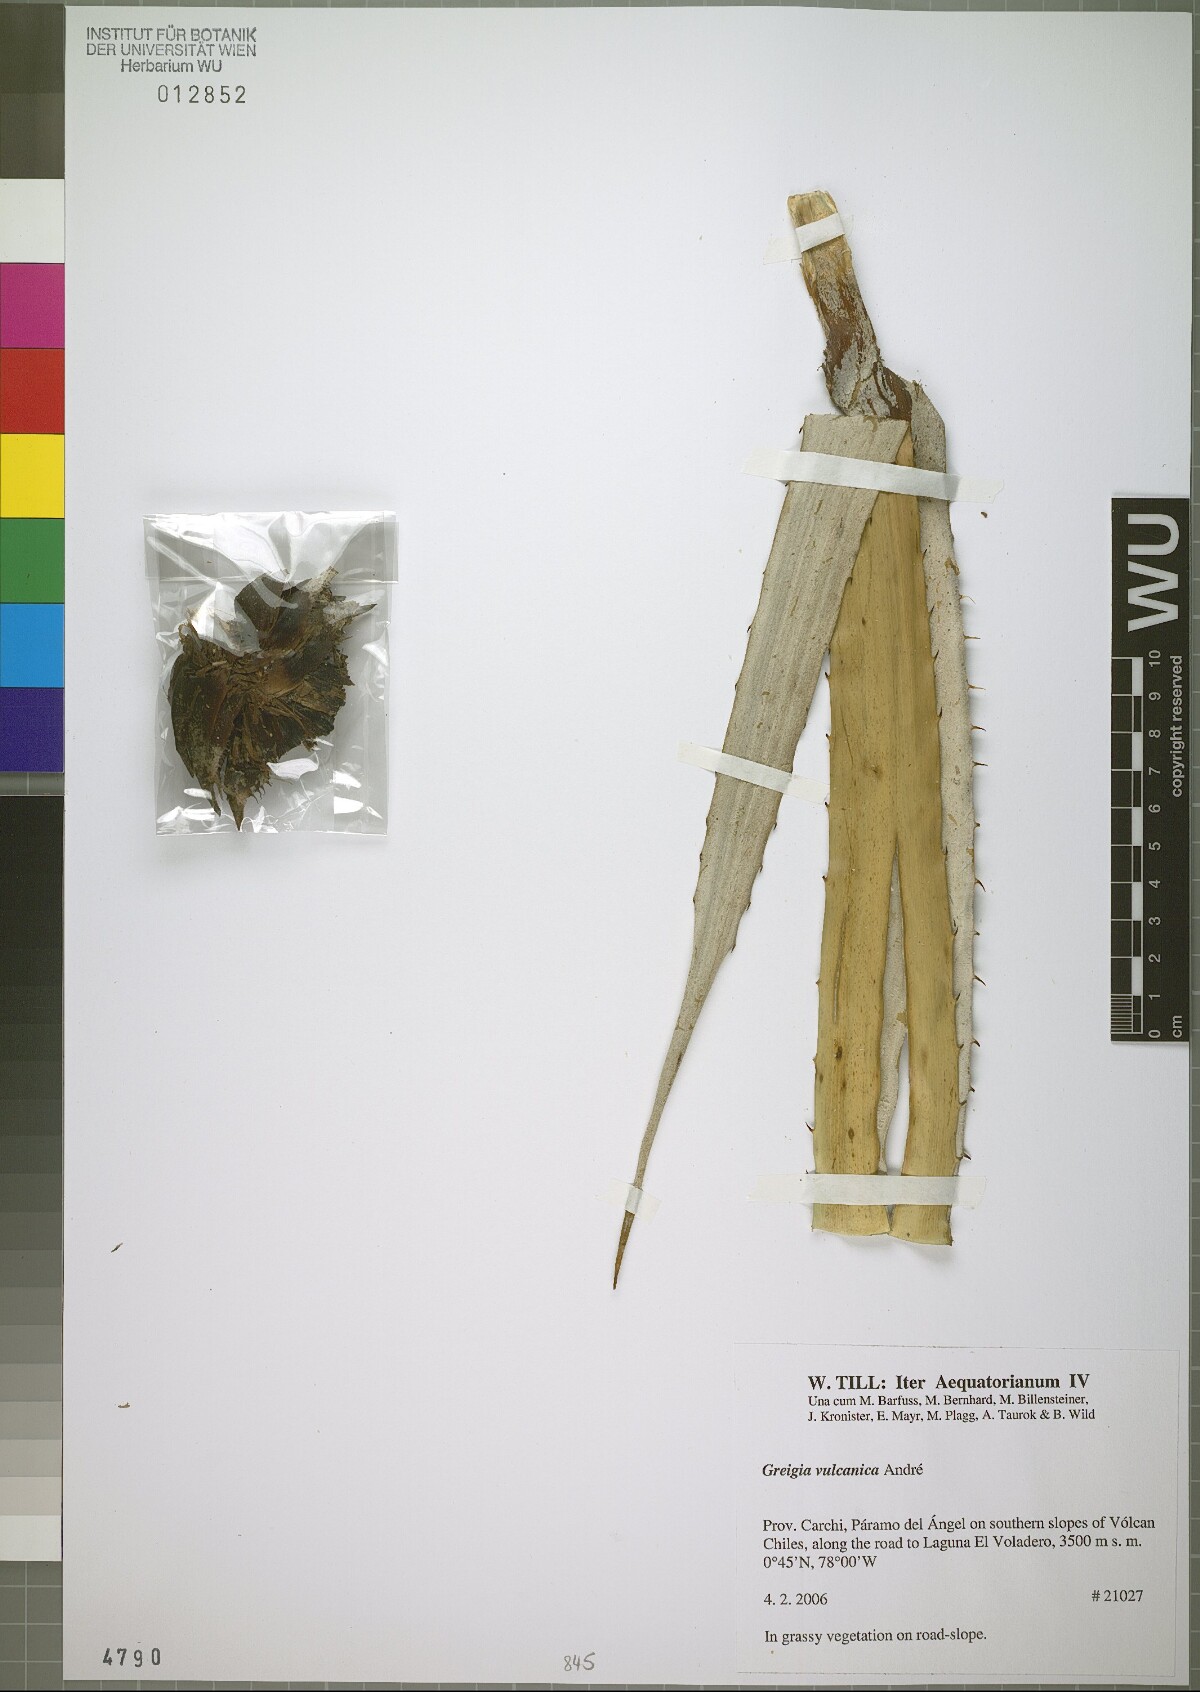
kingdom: Plantae
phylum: Tracheophyta
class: Liliopsida
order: Poales
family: Bromeliaceae
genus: Greigia
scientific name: Greigia vulcanica
